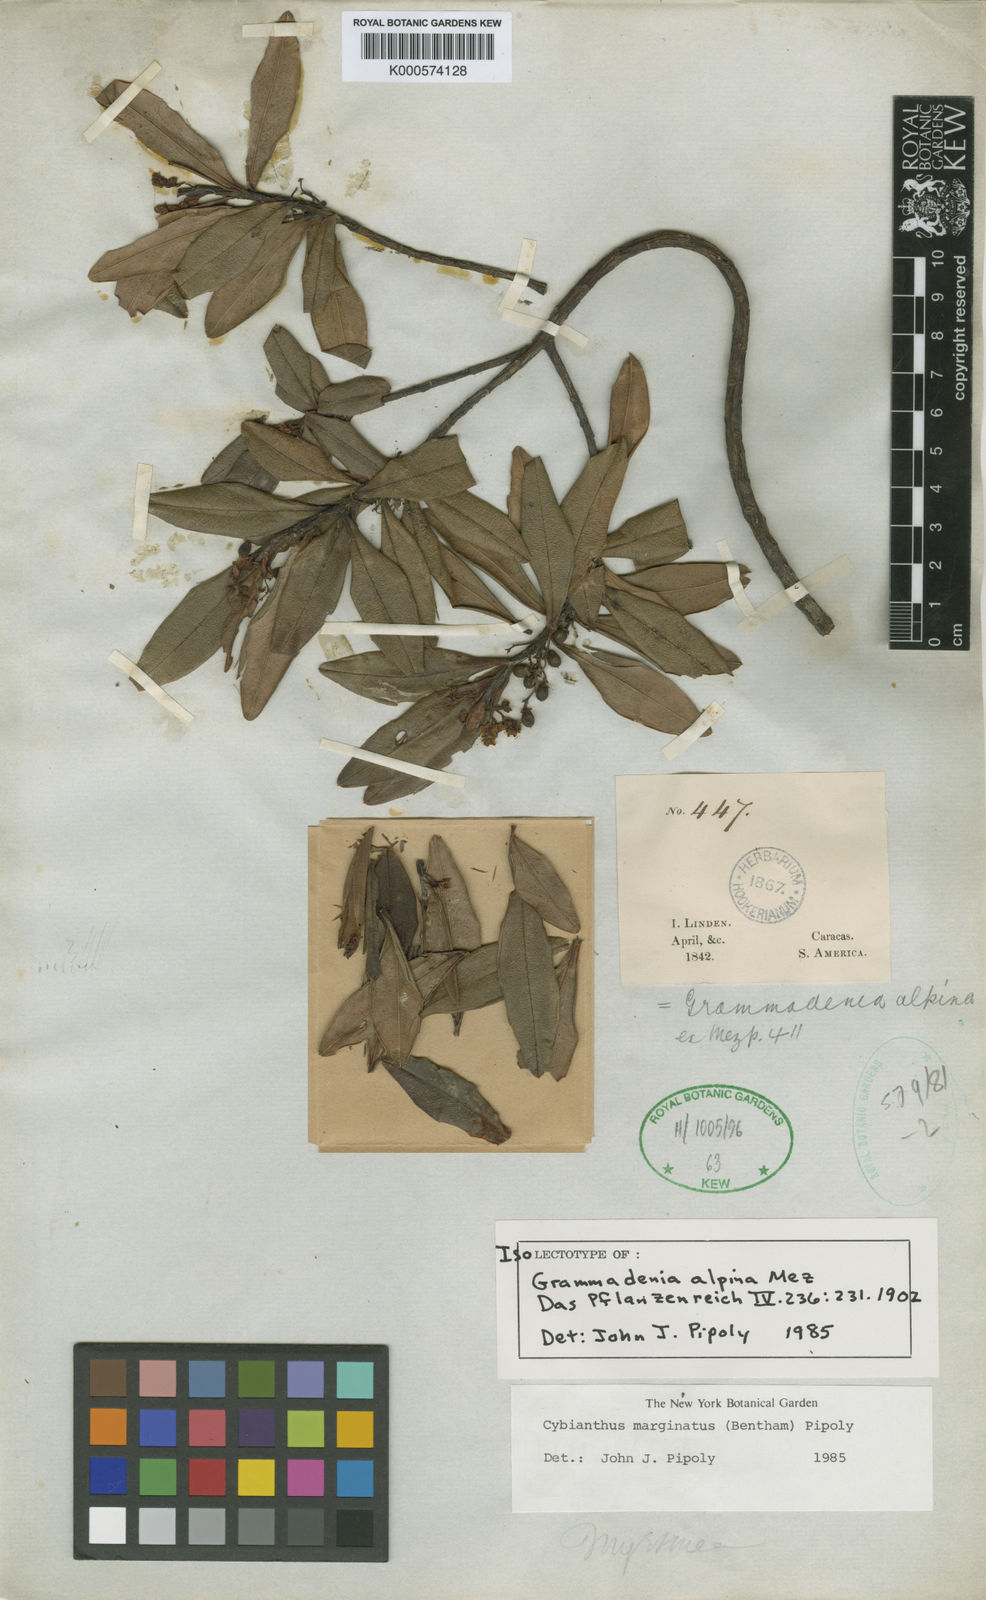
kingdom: Plantae
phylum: Tracheophyta
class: Magnoliopsida
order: Ericales
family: Primulaceae
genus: Cybianthus
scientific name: Cybianthus marginatus
